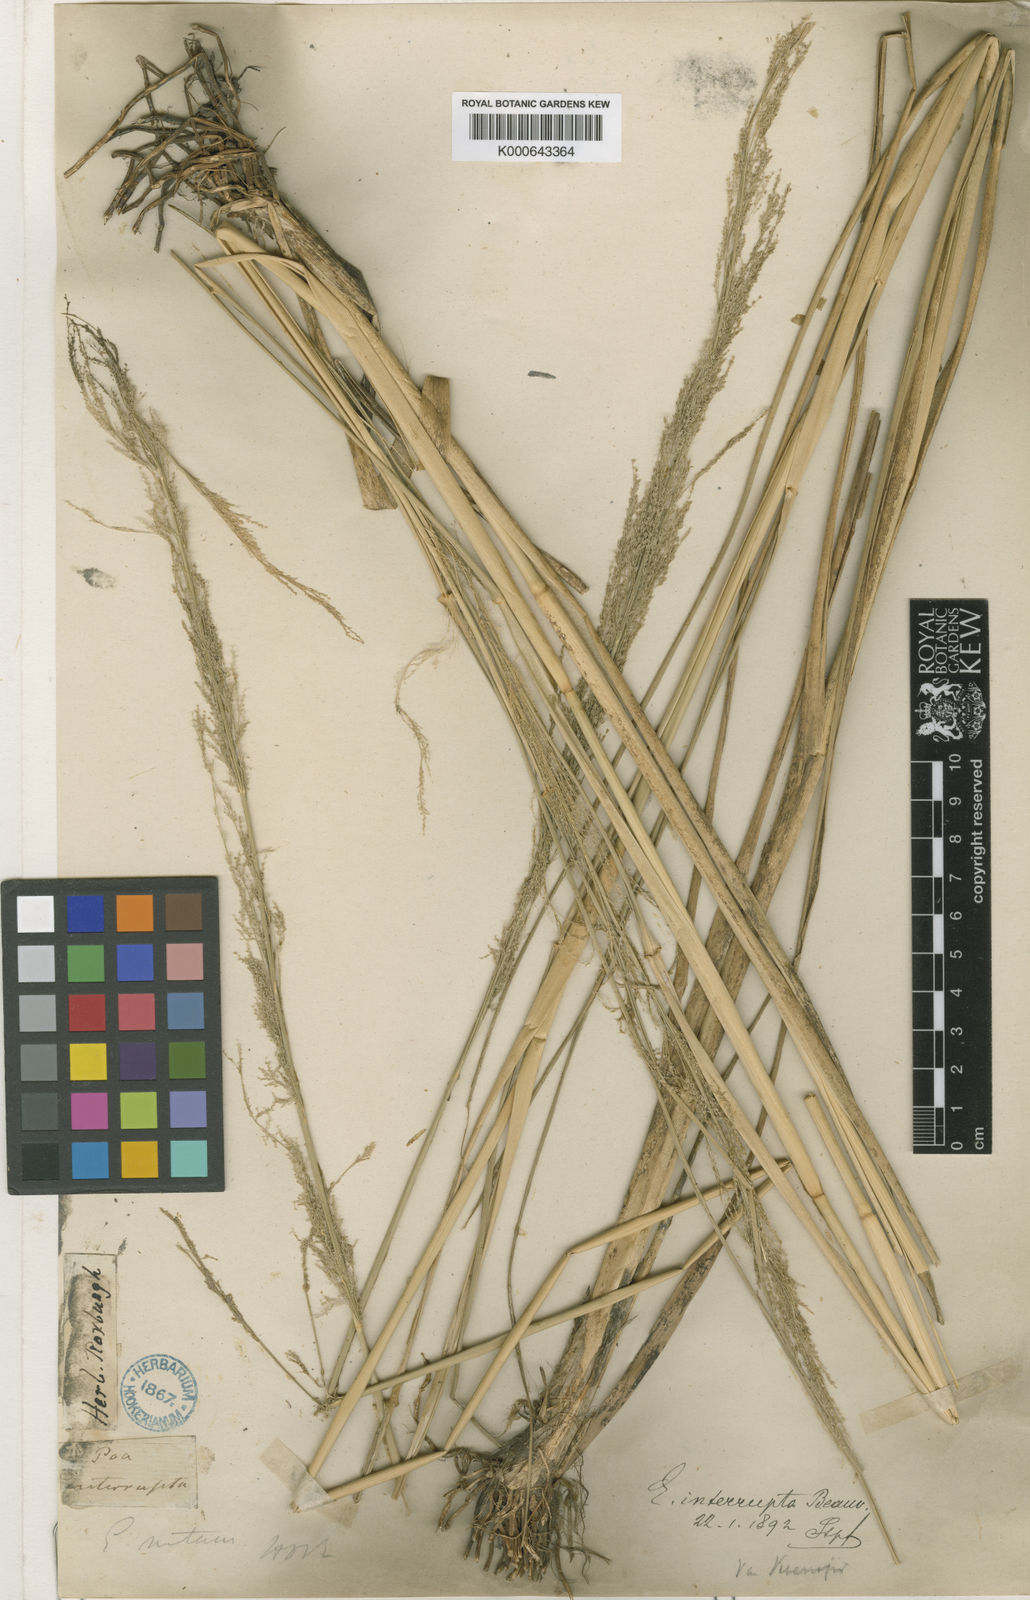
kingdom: Plantae
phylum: Tracheophyta
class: Liliopsida
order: Poales
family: Poaceae
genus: Eragrostis
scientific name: Eragrostis japonica
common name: Pond lovegrass
